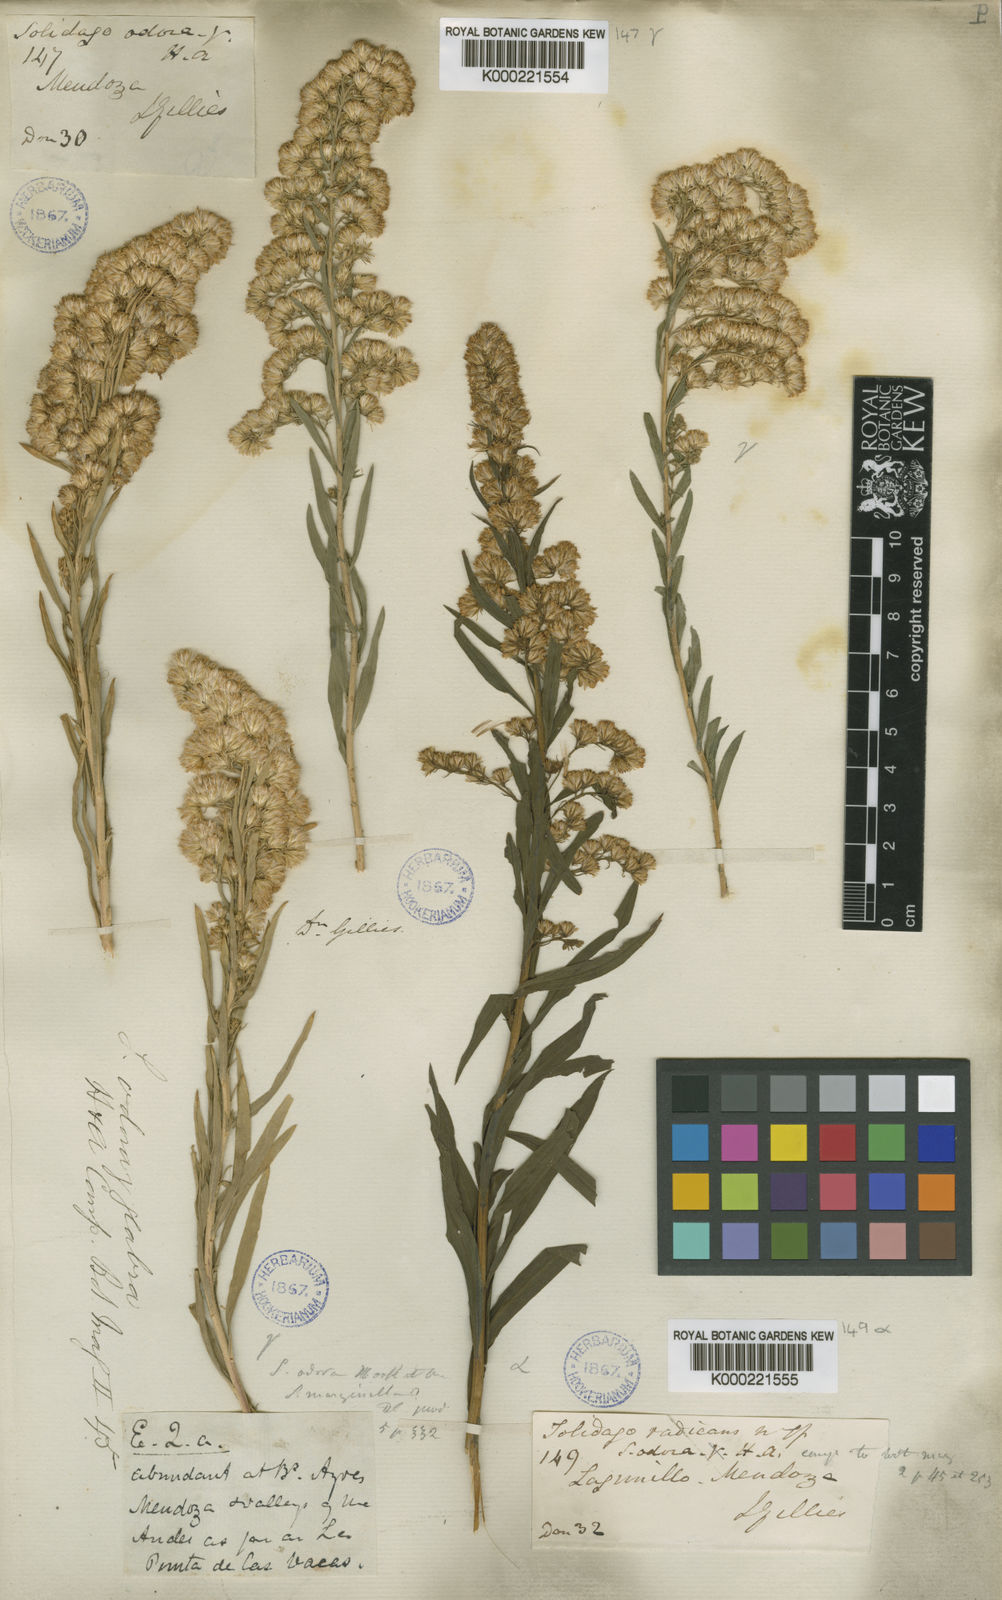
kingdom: Plantae
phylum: Tracheophyta
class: Magnoliopsida
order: Asterales
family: Asteraceae
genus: Solidago
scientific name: Solidago chilensis
